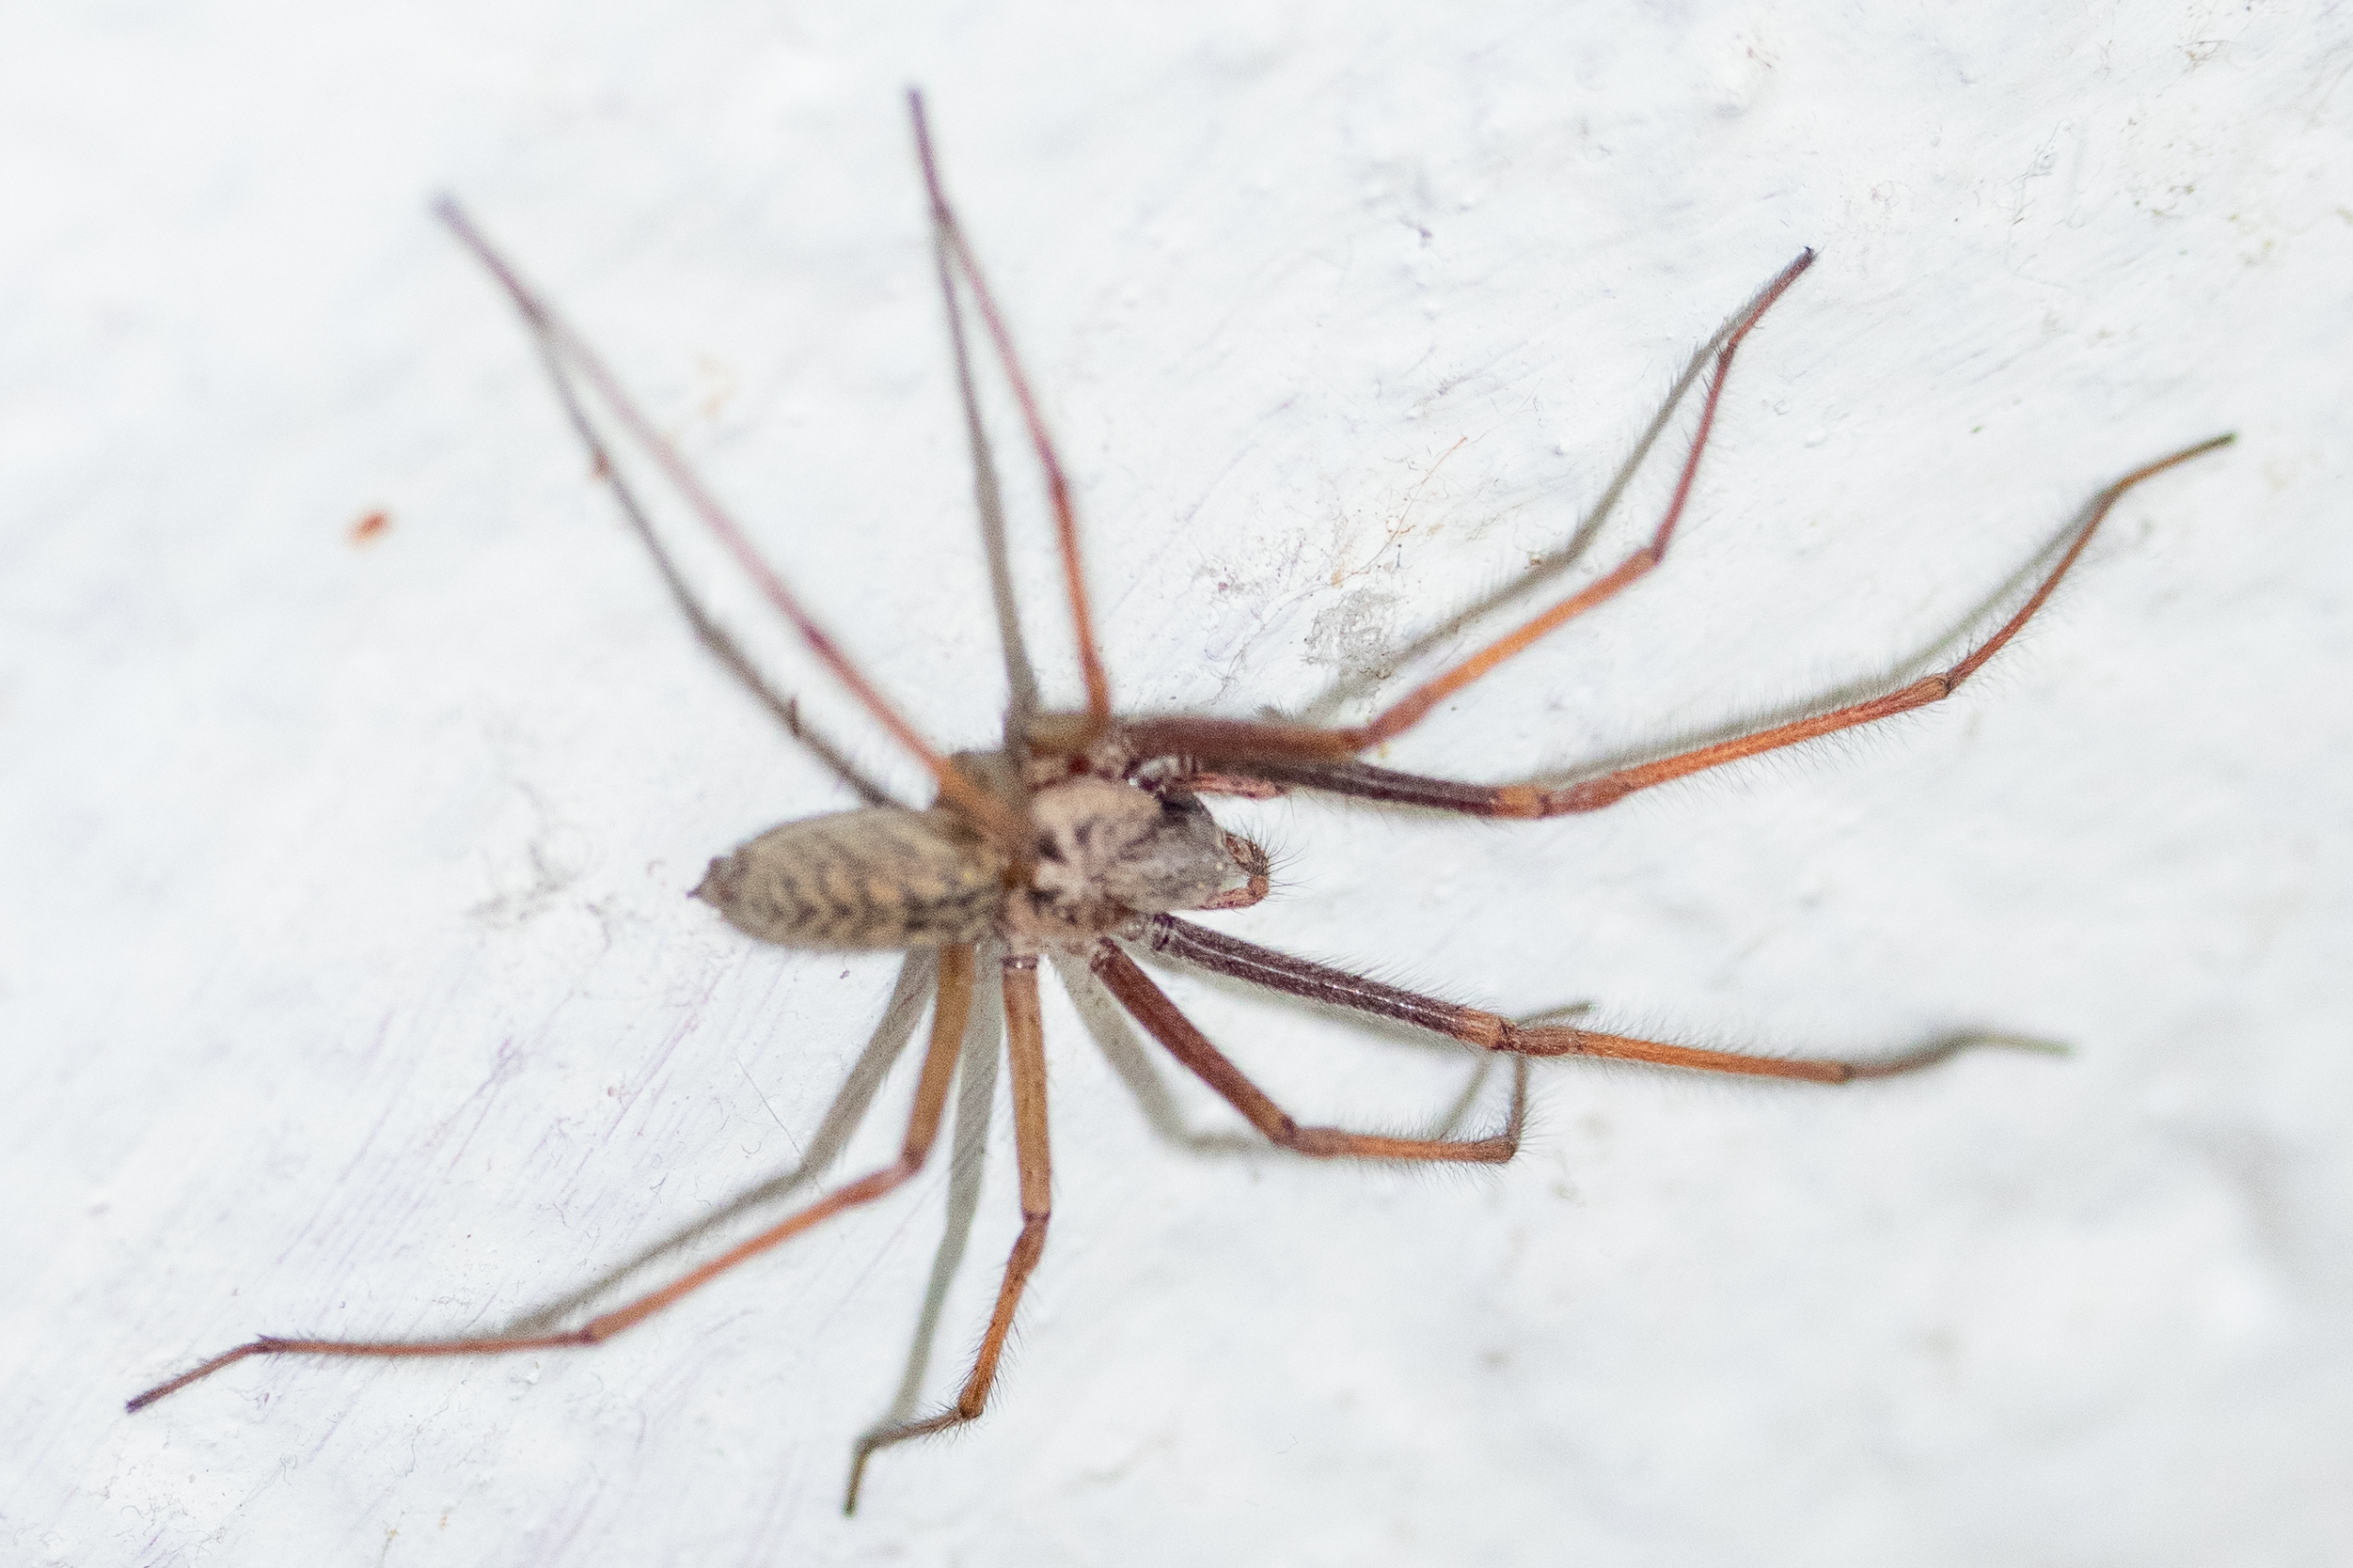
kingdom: Animalia
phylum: Arthropoda
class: Arachnida
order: Araneae
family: Agelenidae
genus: Eratigena
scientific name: Eratigena atrica
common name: Stor husedderkop
